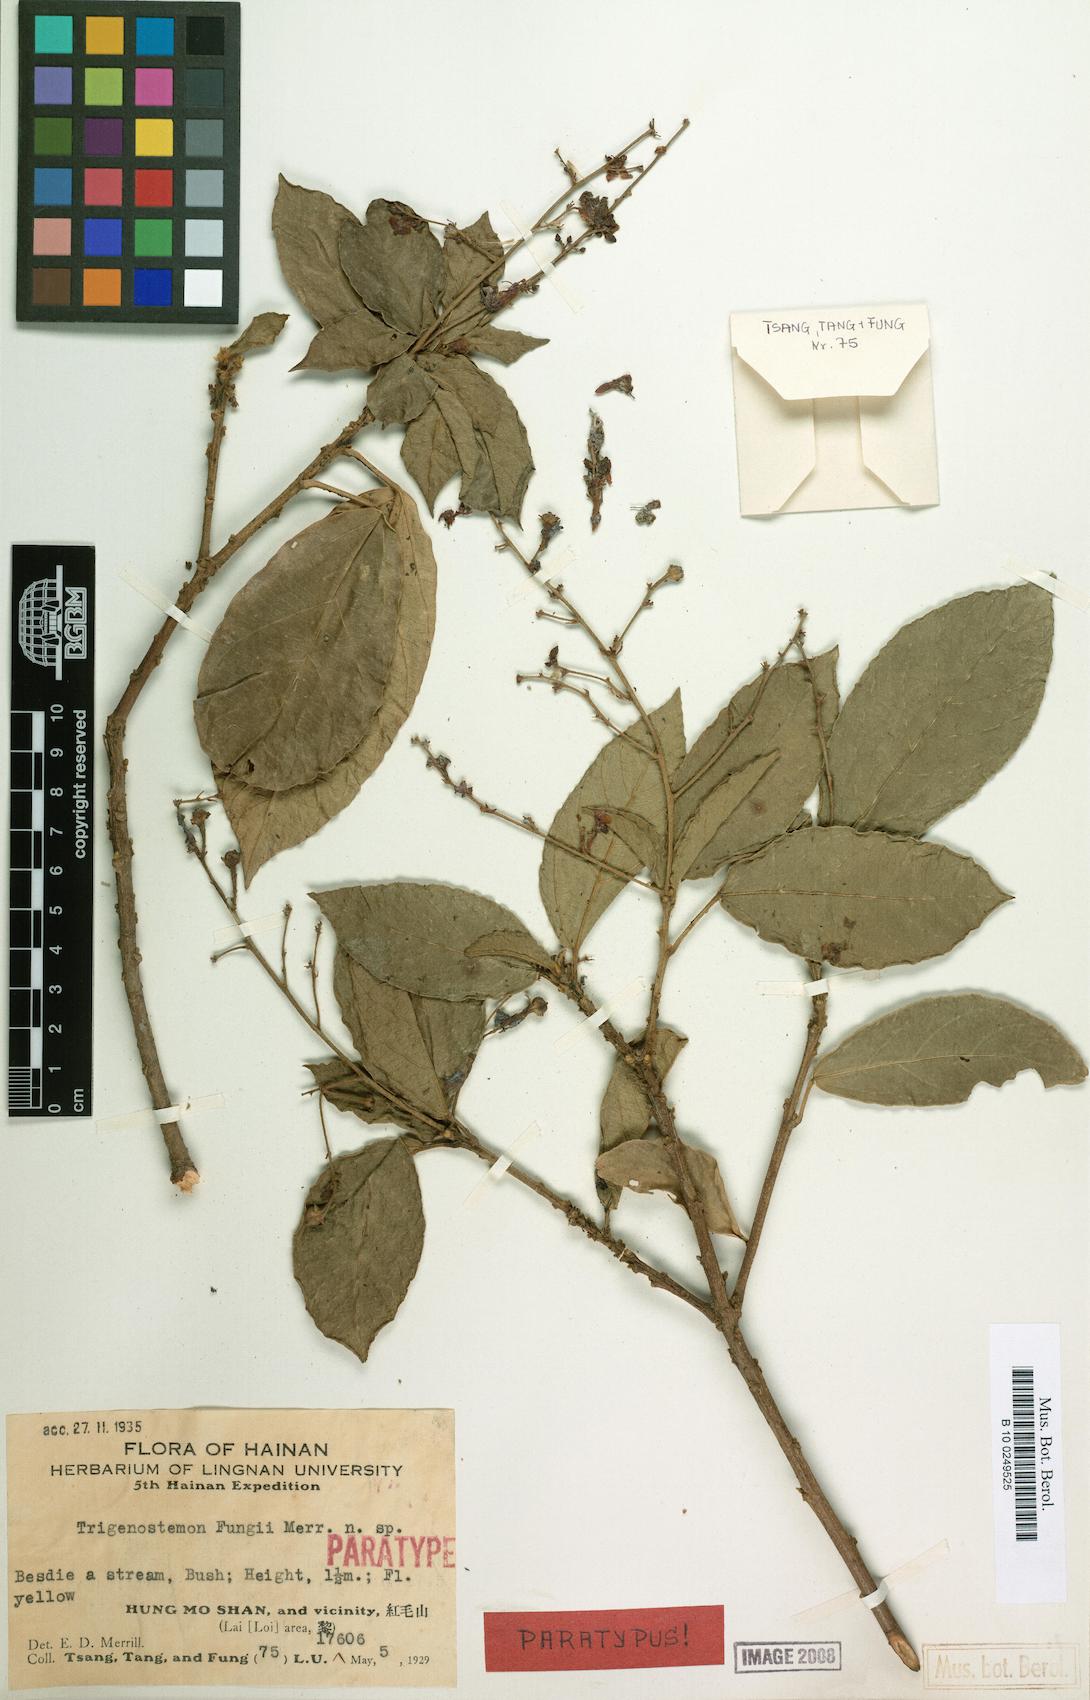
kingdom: Plantae
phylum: Tracheophyta
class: Magnoliopsida
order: Malpighiales
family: Euphorbiaceae
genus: Trigonostemon
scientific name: Trigonostemon viridissimus
